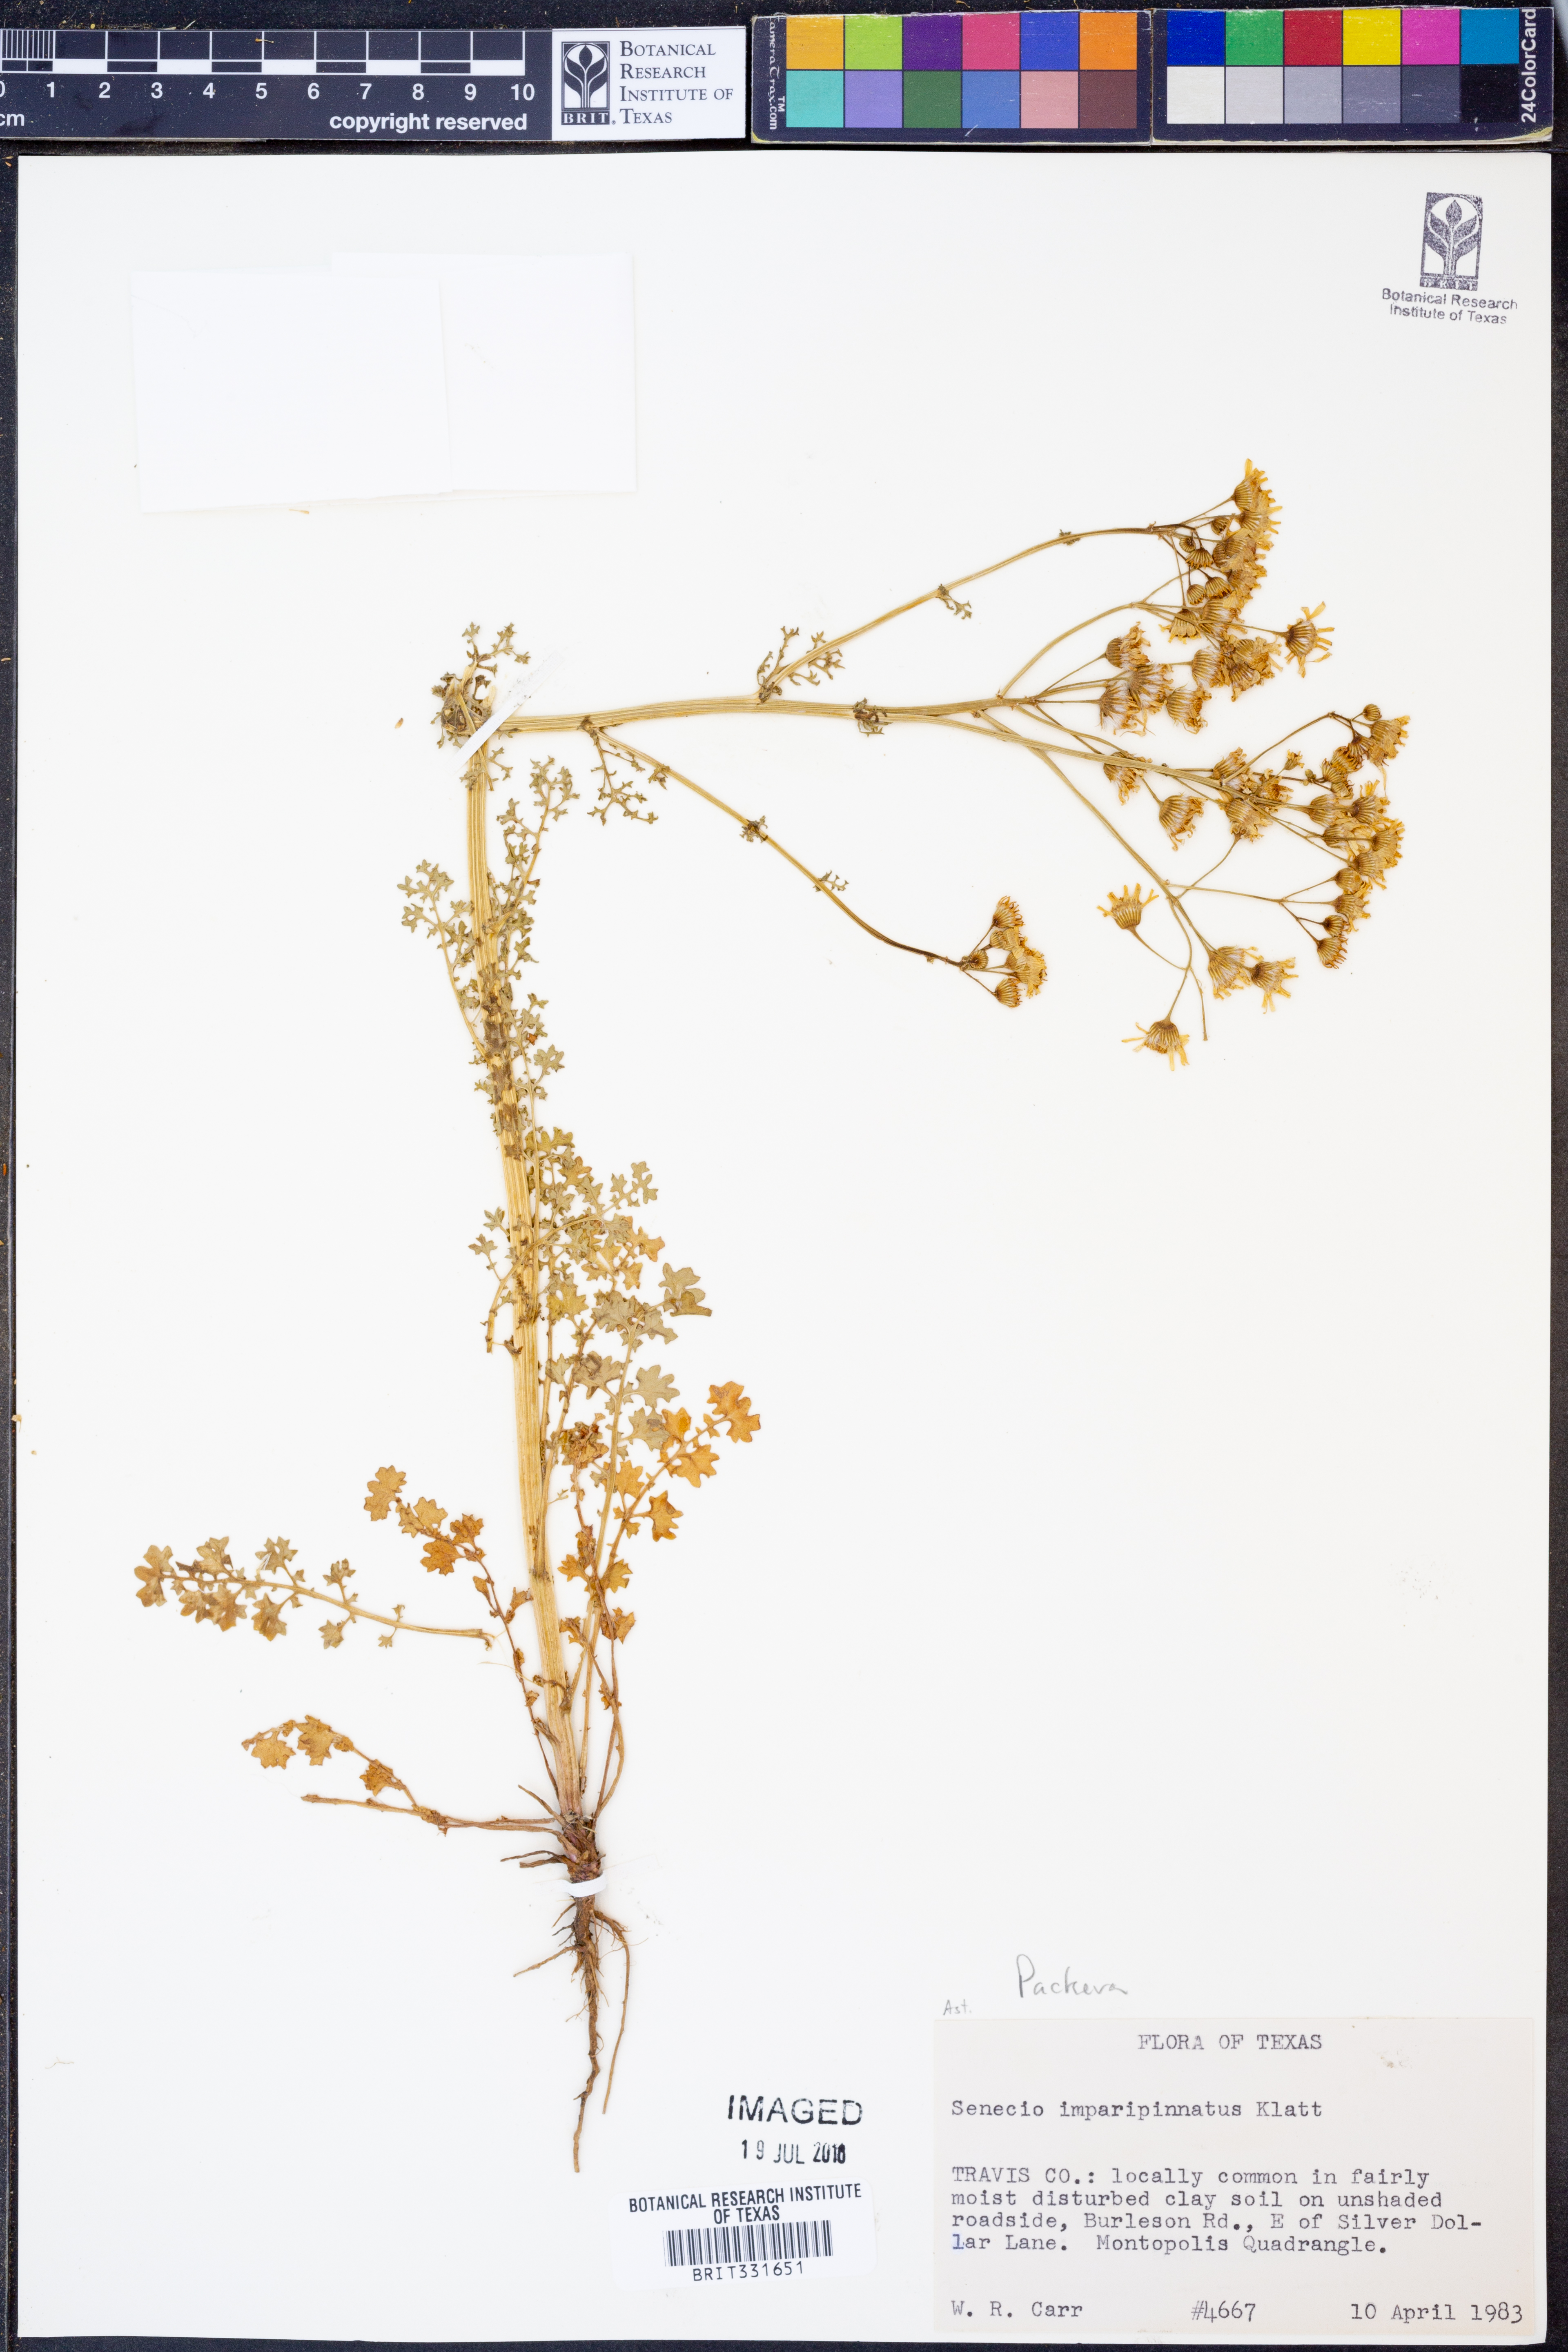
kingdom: Plantae
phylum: Tracheophyta
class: Magnoliopsida
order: Asterales
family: Asteraceae
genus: Packera
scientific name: Packera
